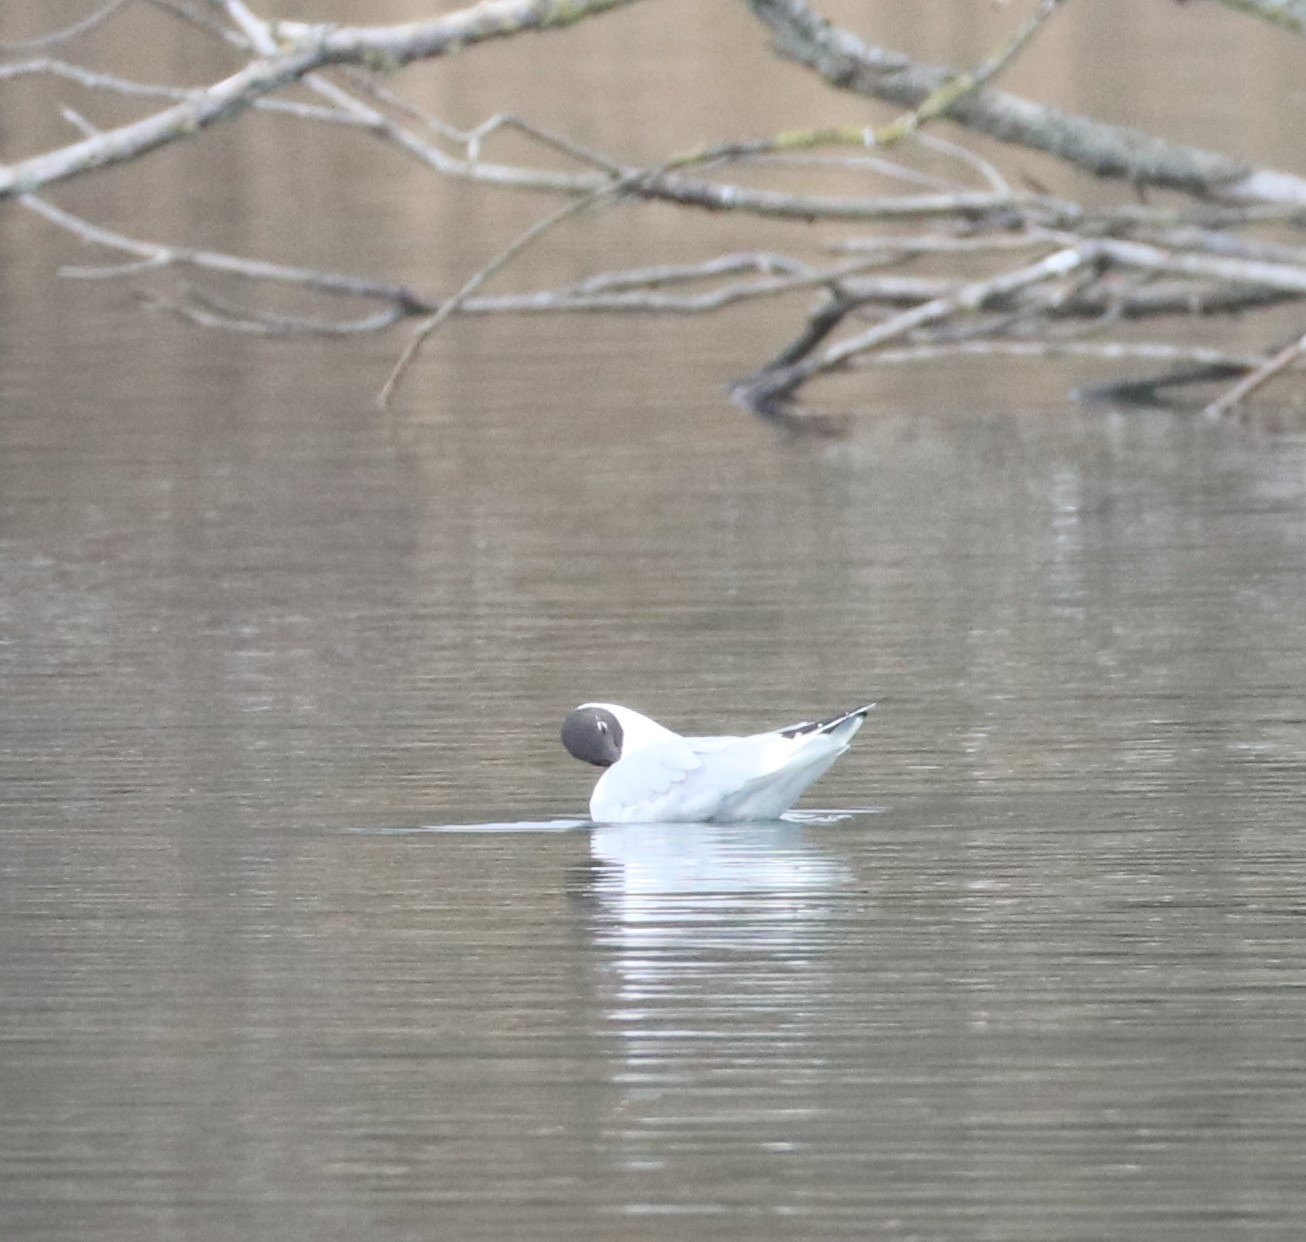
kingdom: Animalia
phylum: Chordata
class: Aves
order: Charadriiformes
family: Laridae
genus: Chroicocephalus
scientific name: Chroicocephalus ridibundus
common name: Hættemåge
